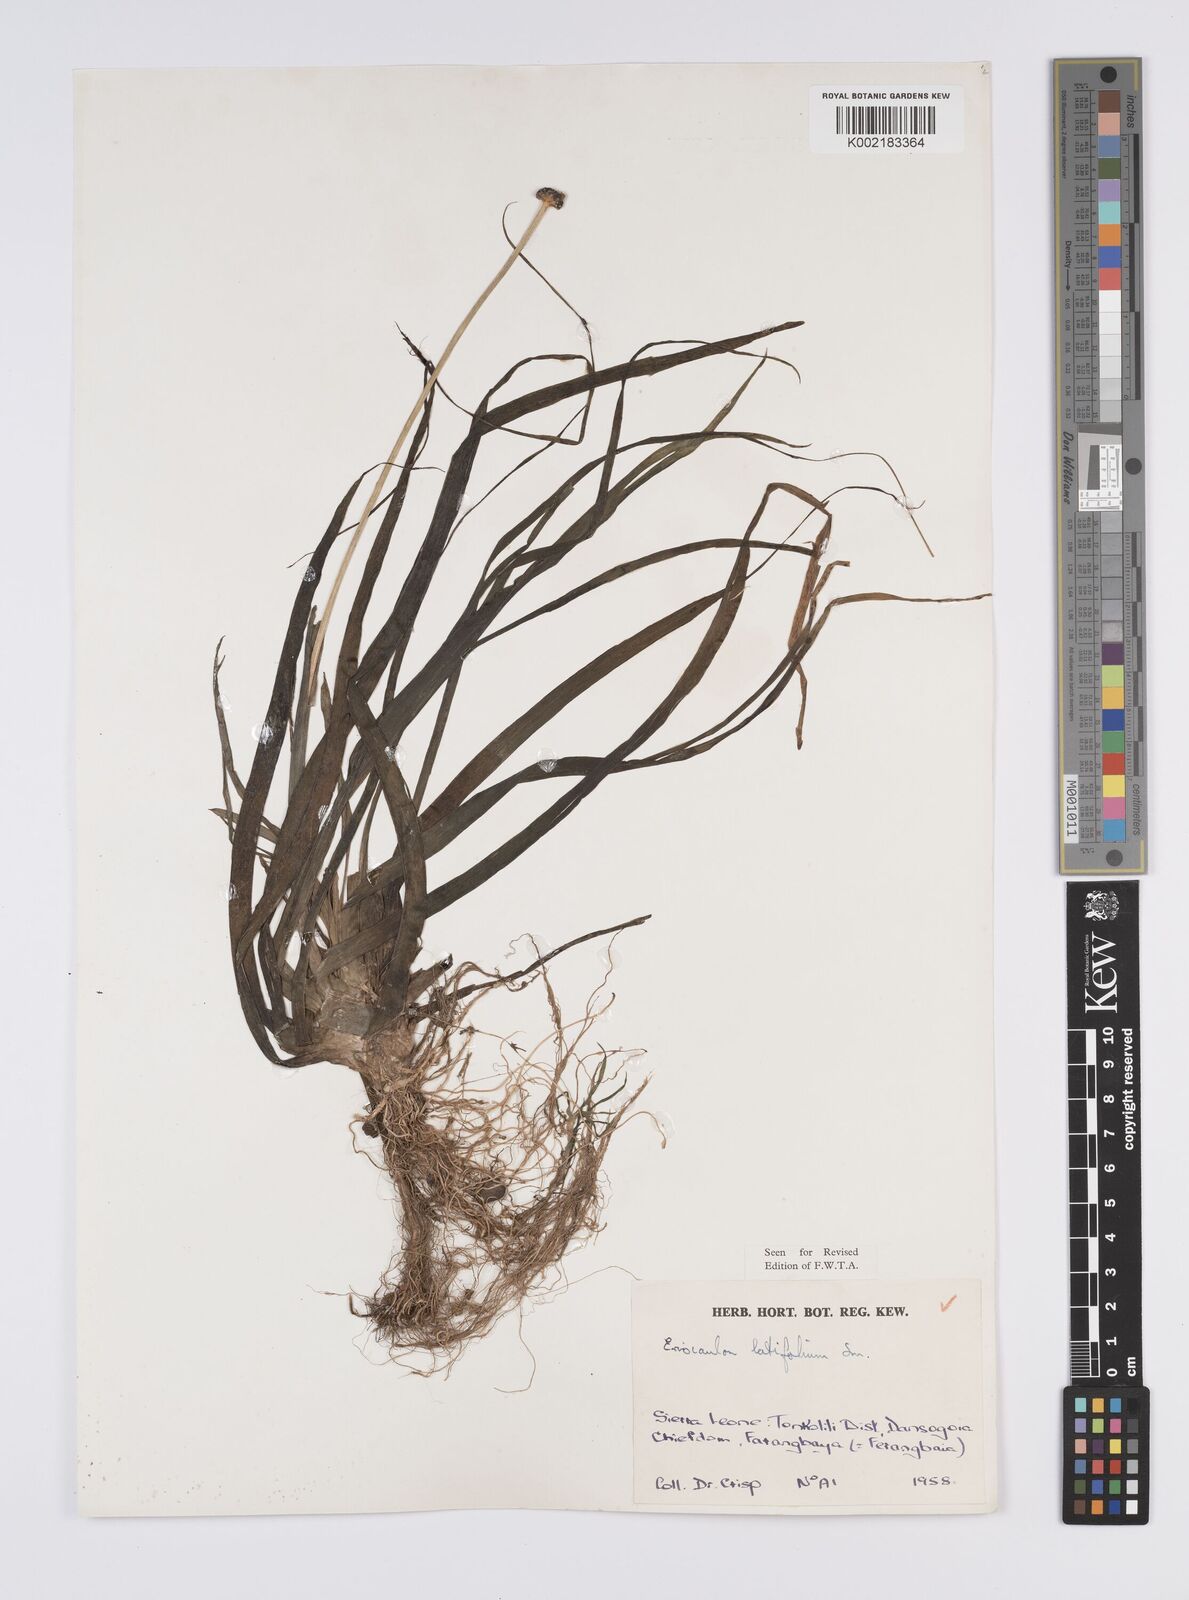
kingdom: Plantae
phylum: Tracheophyta
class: Liliopsida
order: Poales
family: Eriocaulaceae
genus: Eriocaulon
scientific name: Eriocaulon latifolium
